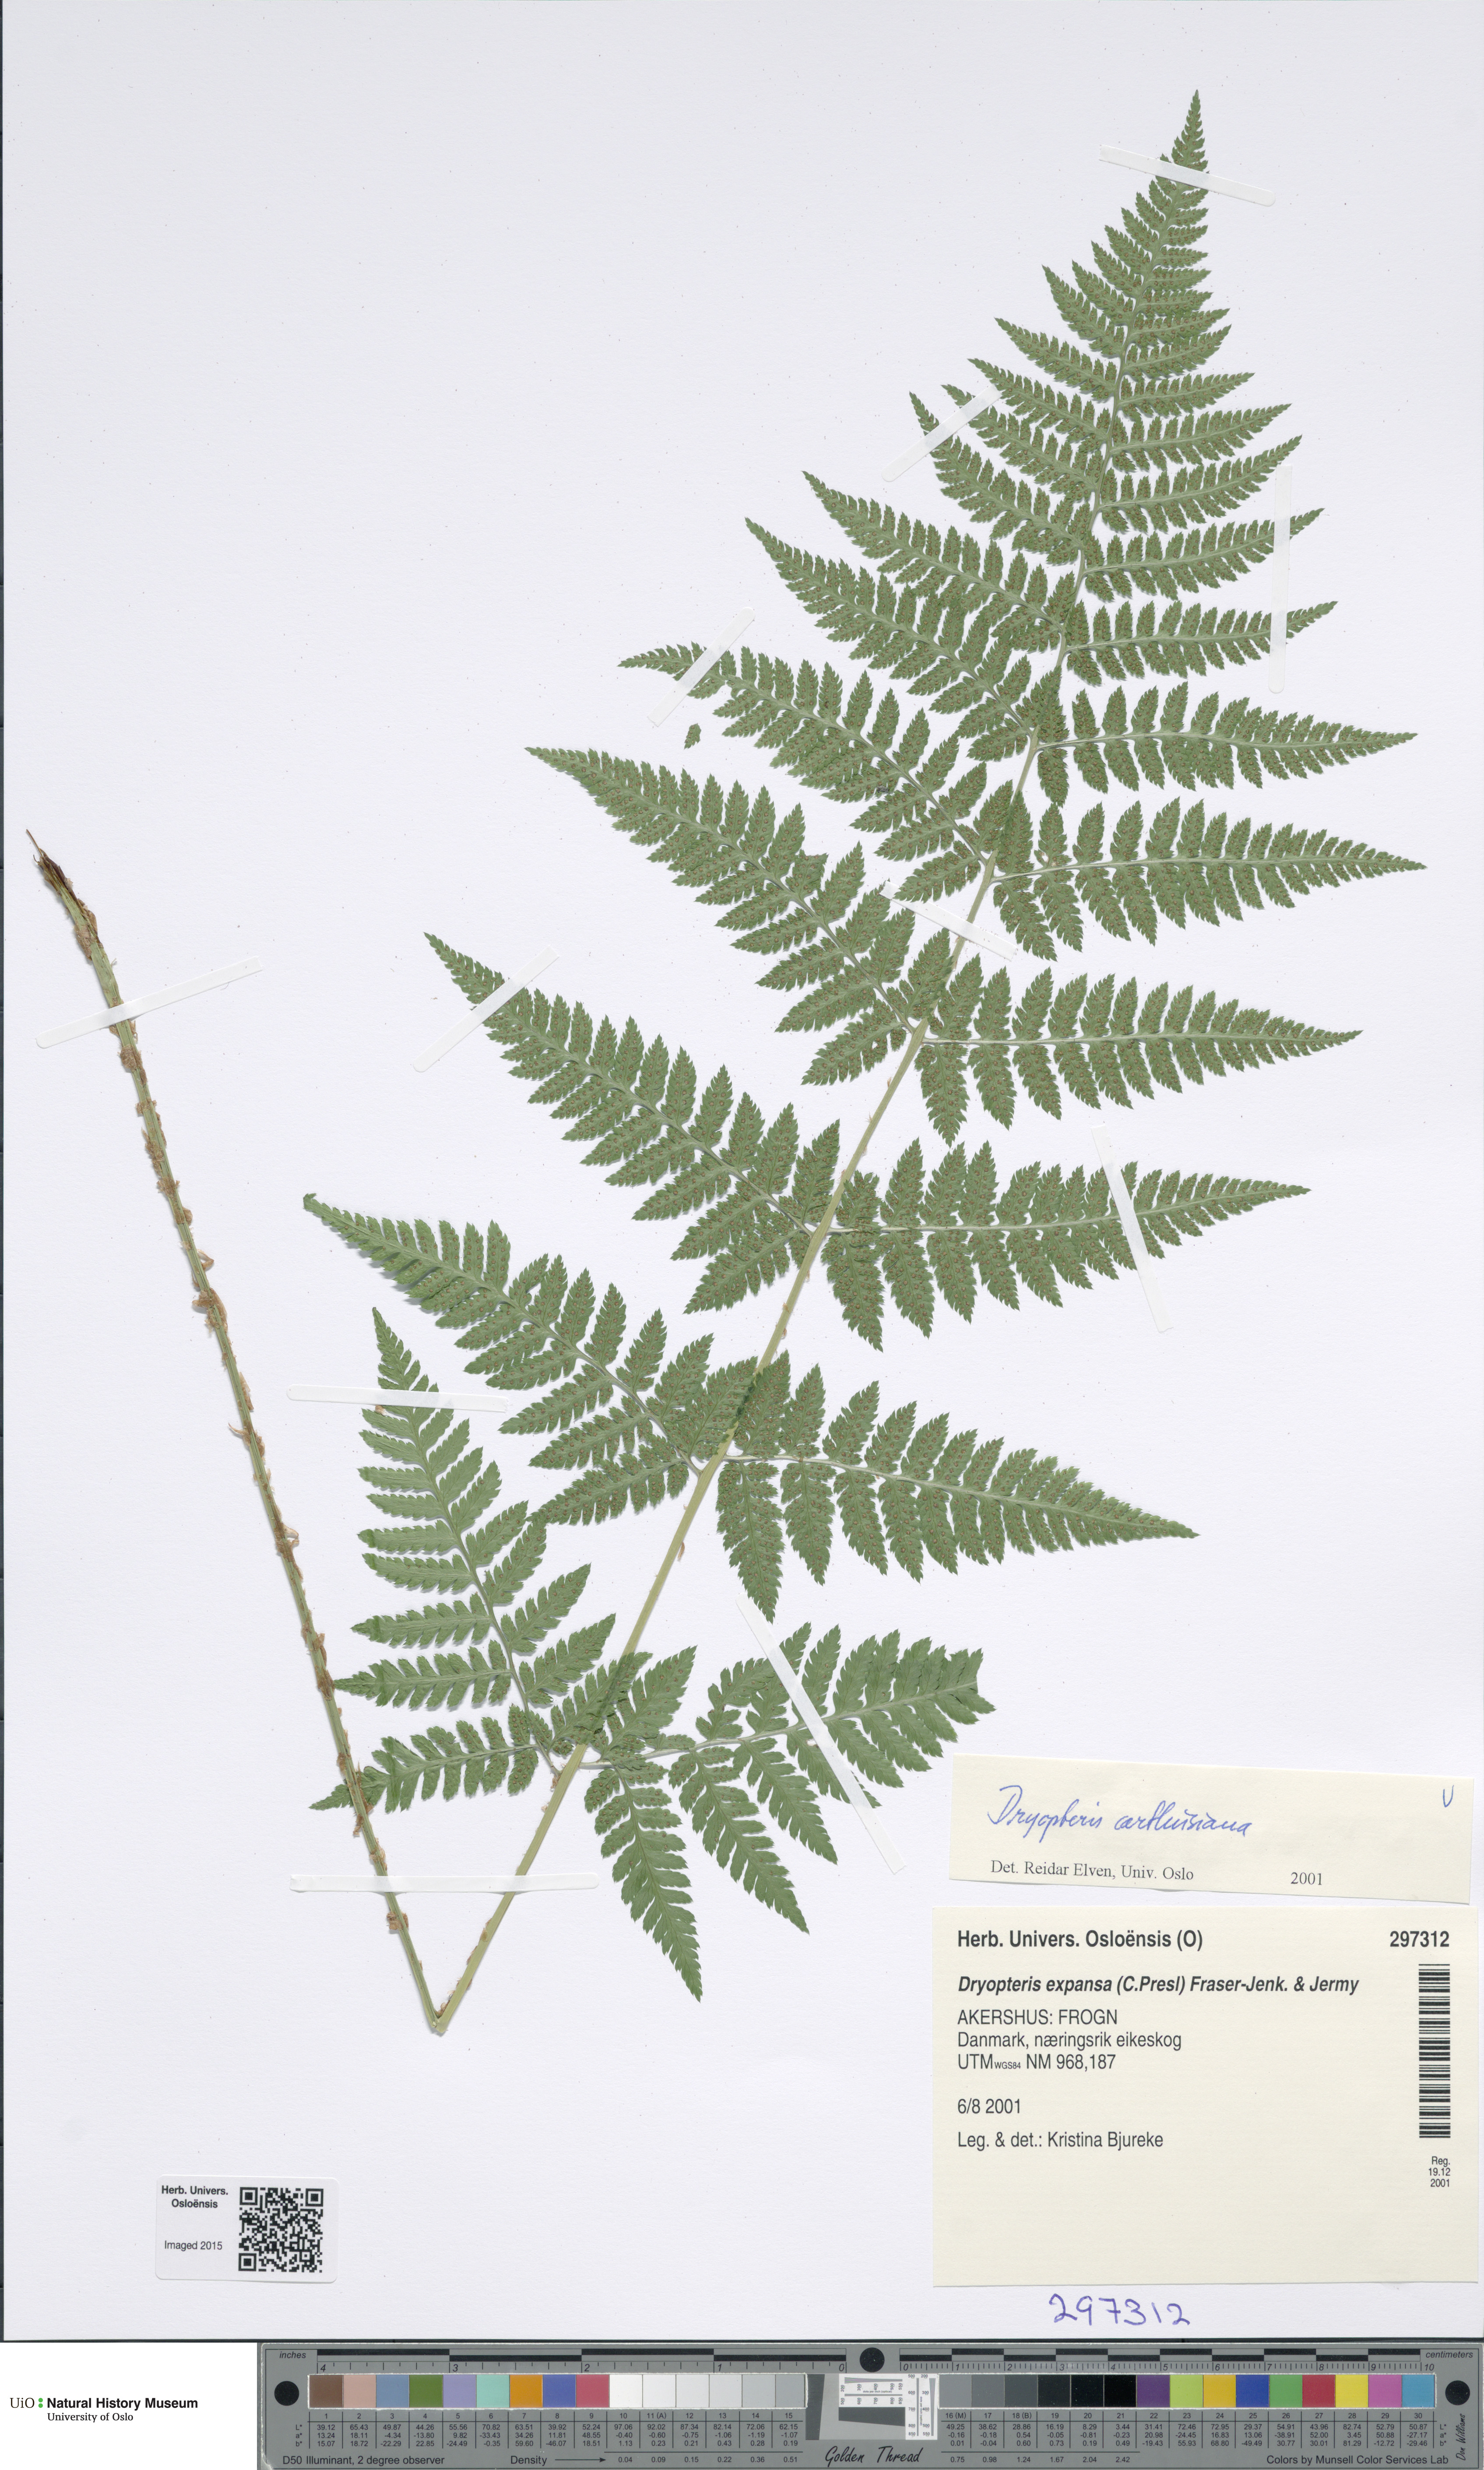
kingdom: Plantae
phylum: Tracheophyta
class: Polypodiopsida
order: Polypodiales
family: Dryopteridaceae
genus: Dryopteris
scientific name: Dryopteris carthusiana
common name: Narrow buckler-fern
